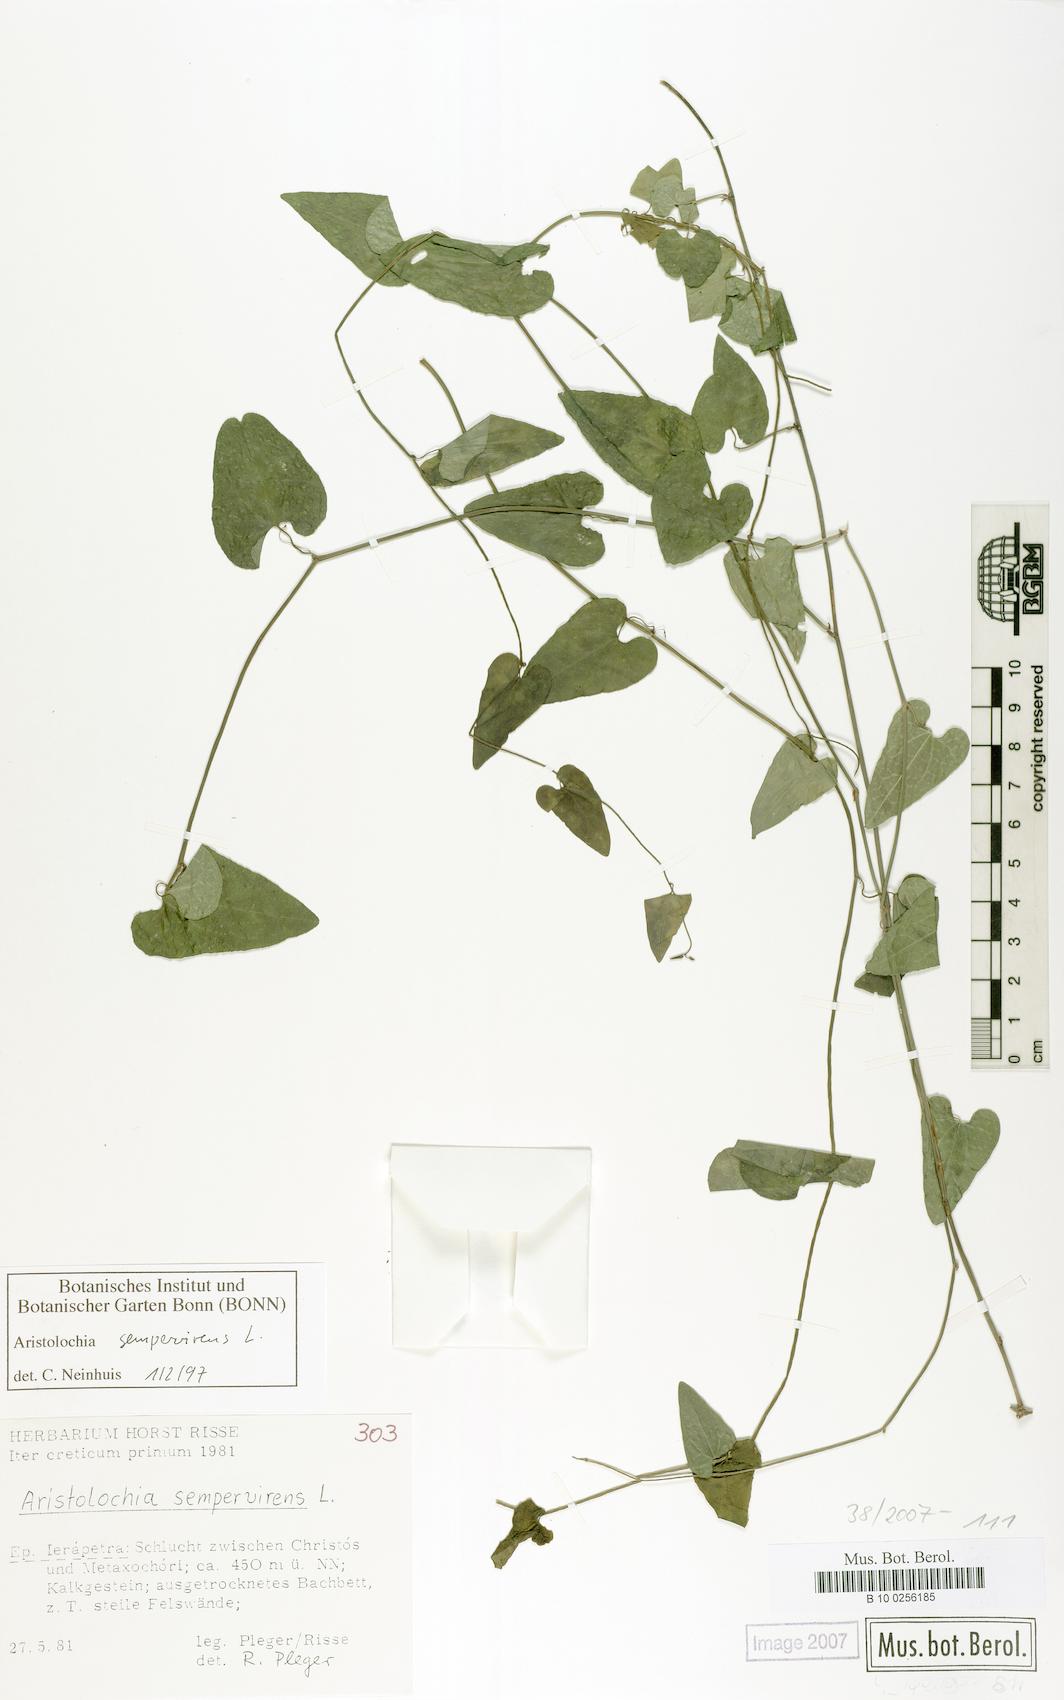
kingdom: Plantae
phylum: Tracheophyta
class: Magnoliopsida
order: Piperales
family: Aristolochiaceae
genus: Aristolochia
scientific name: Aristolochia sempervirens
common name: Long birthwort
